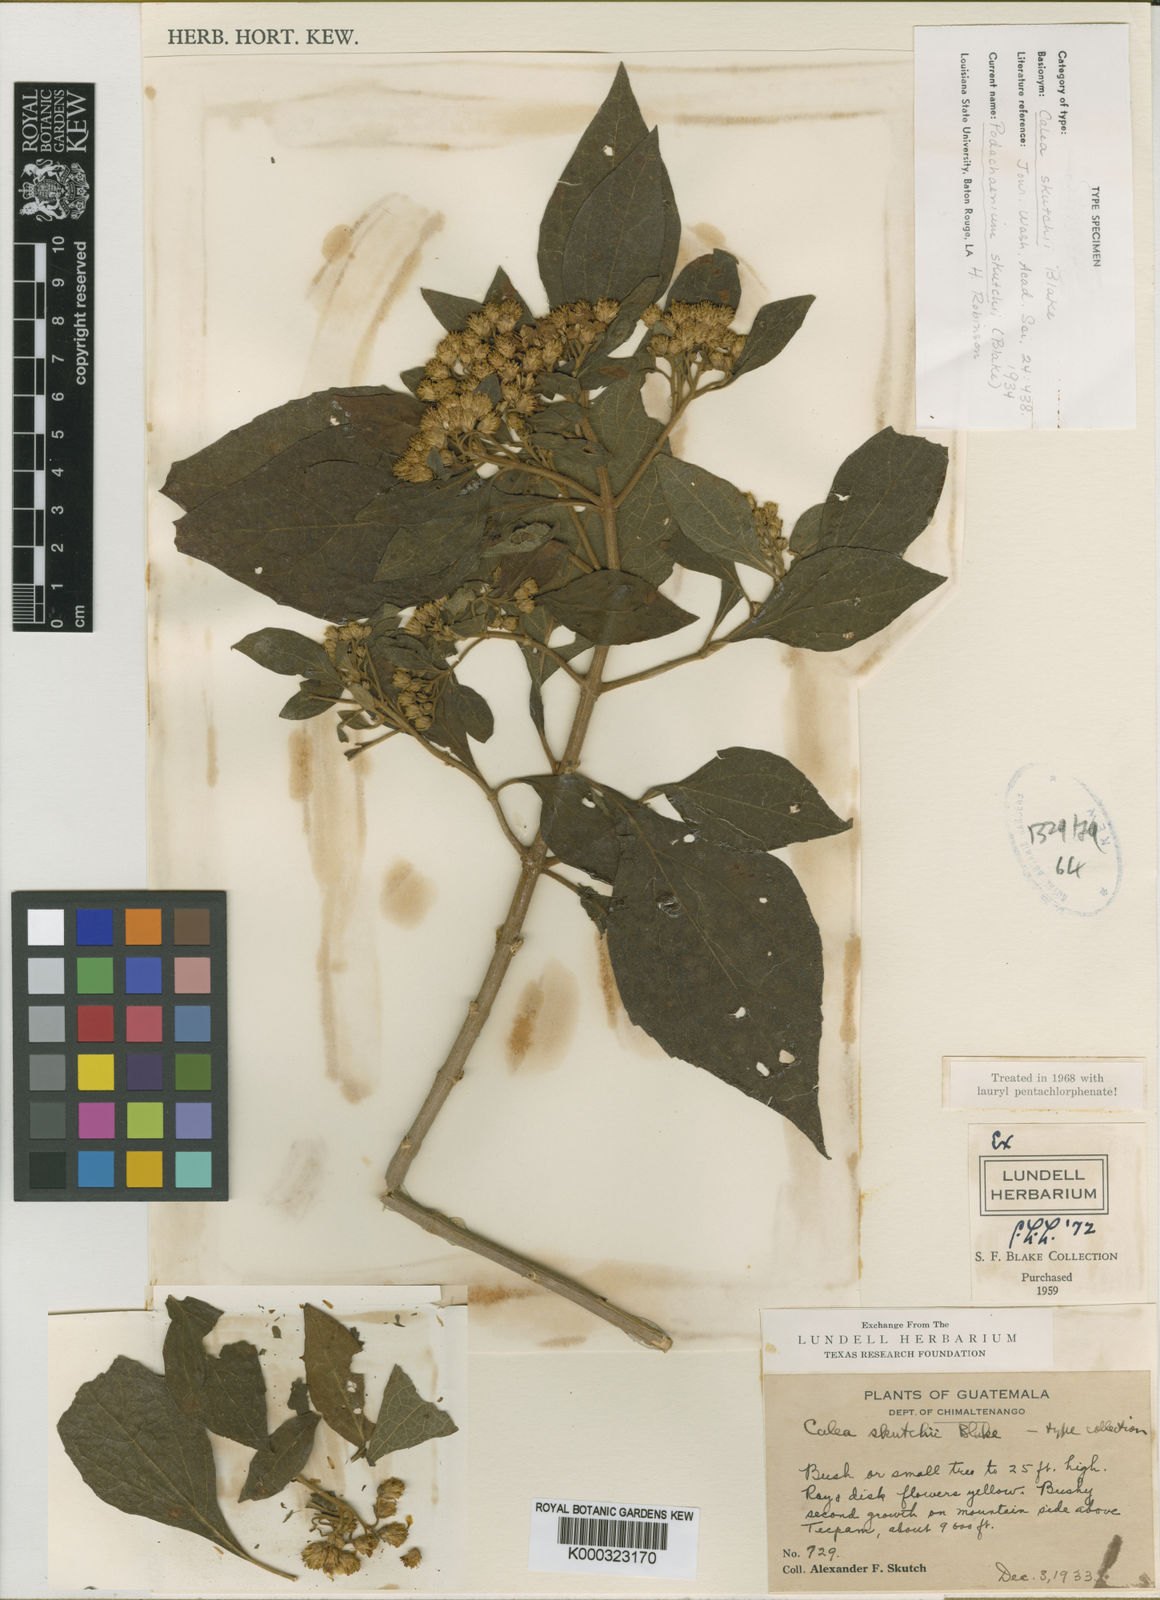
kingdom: Plantae
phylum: Tracheophyta
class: Magnoliopsida
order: Asterales
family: Asteraceae
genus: Squamopappus
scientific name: Squamopappus skutchii
